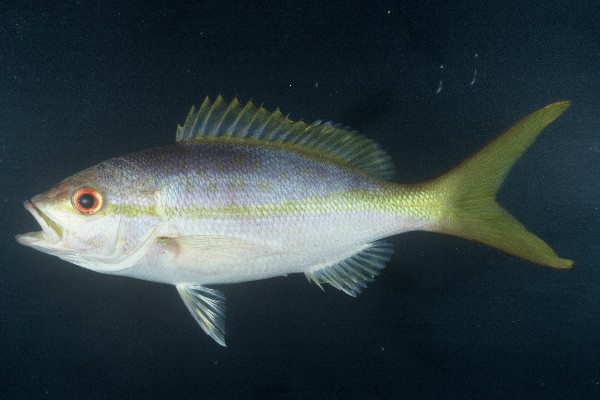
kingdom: Animalia
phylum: Chordata
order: Perciformes
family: Lutjanidae
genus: Ocyurus
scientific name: Ocyurus chrysurus
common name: Yellowtail snapper
